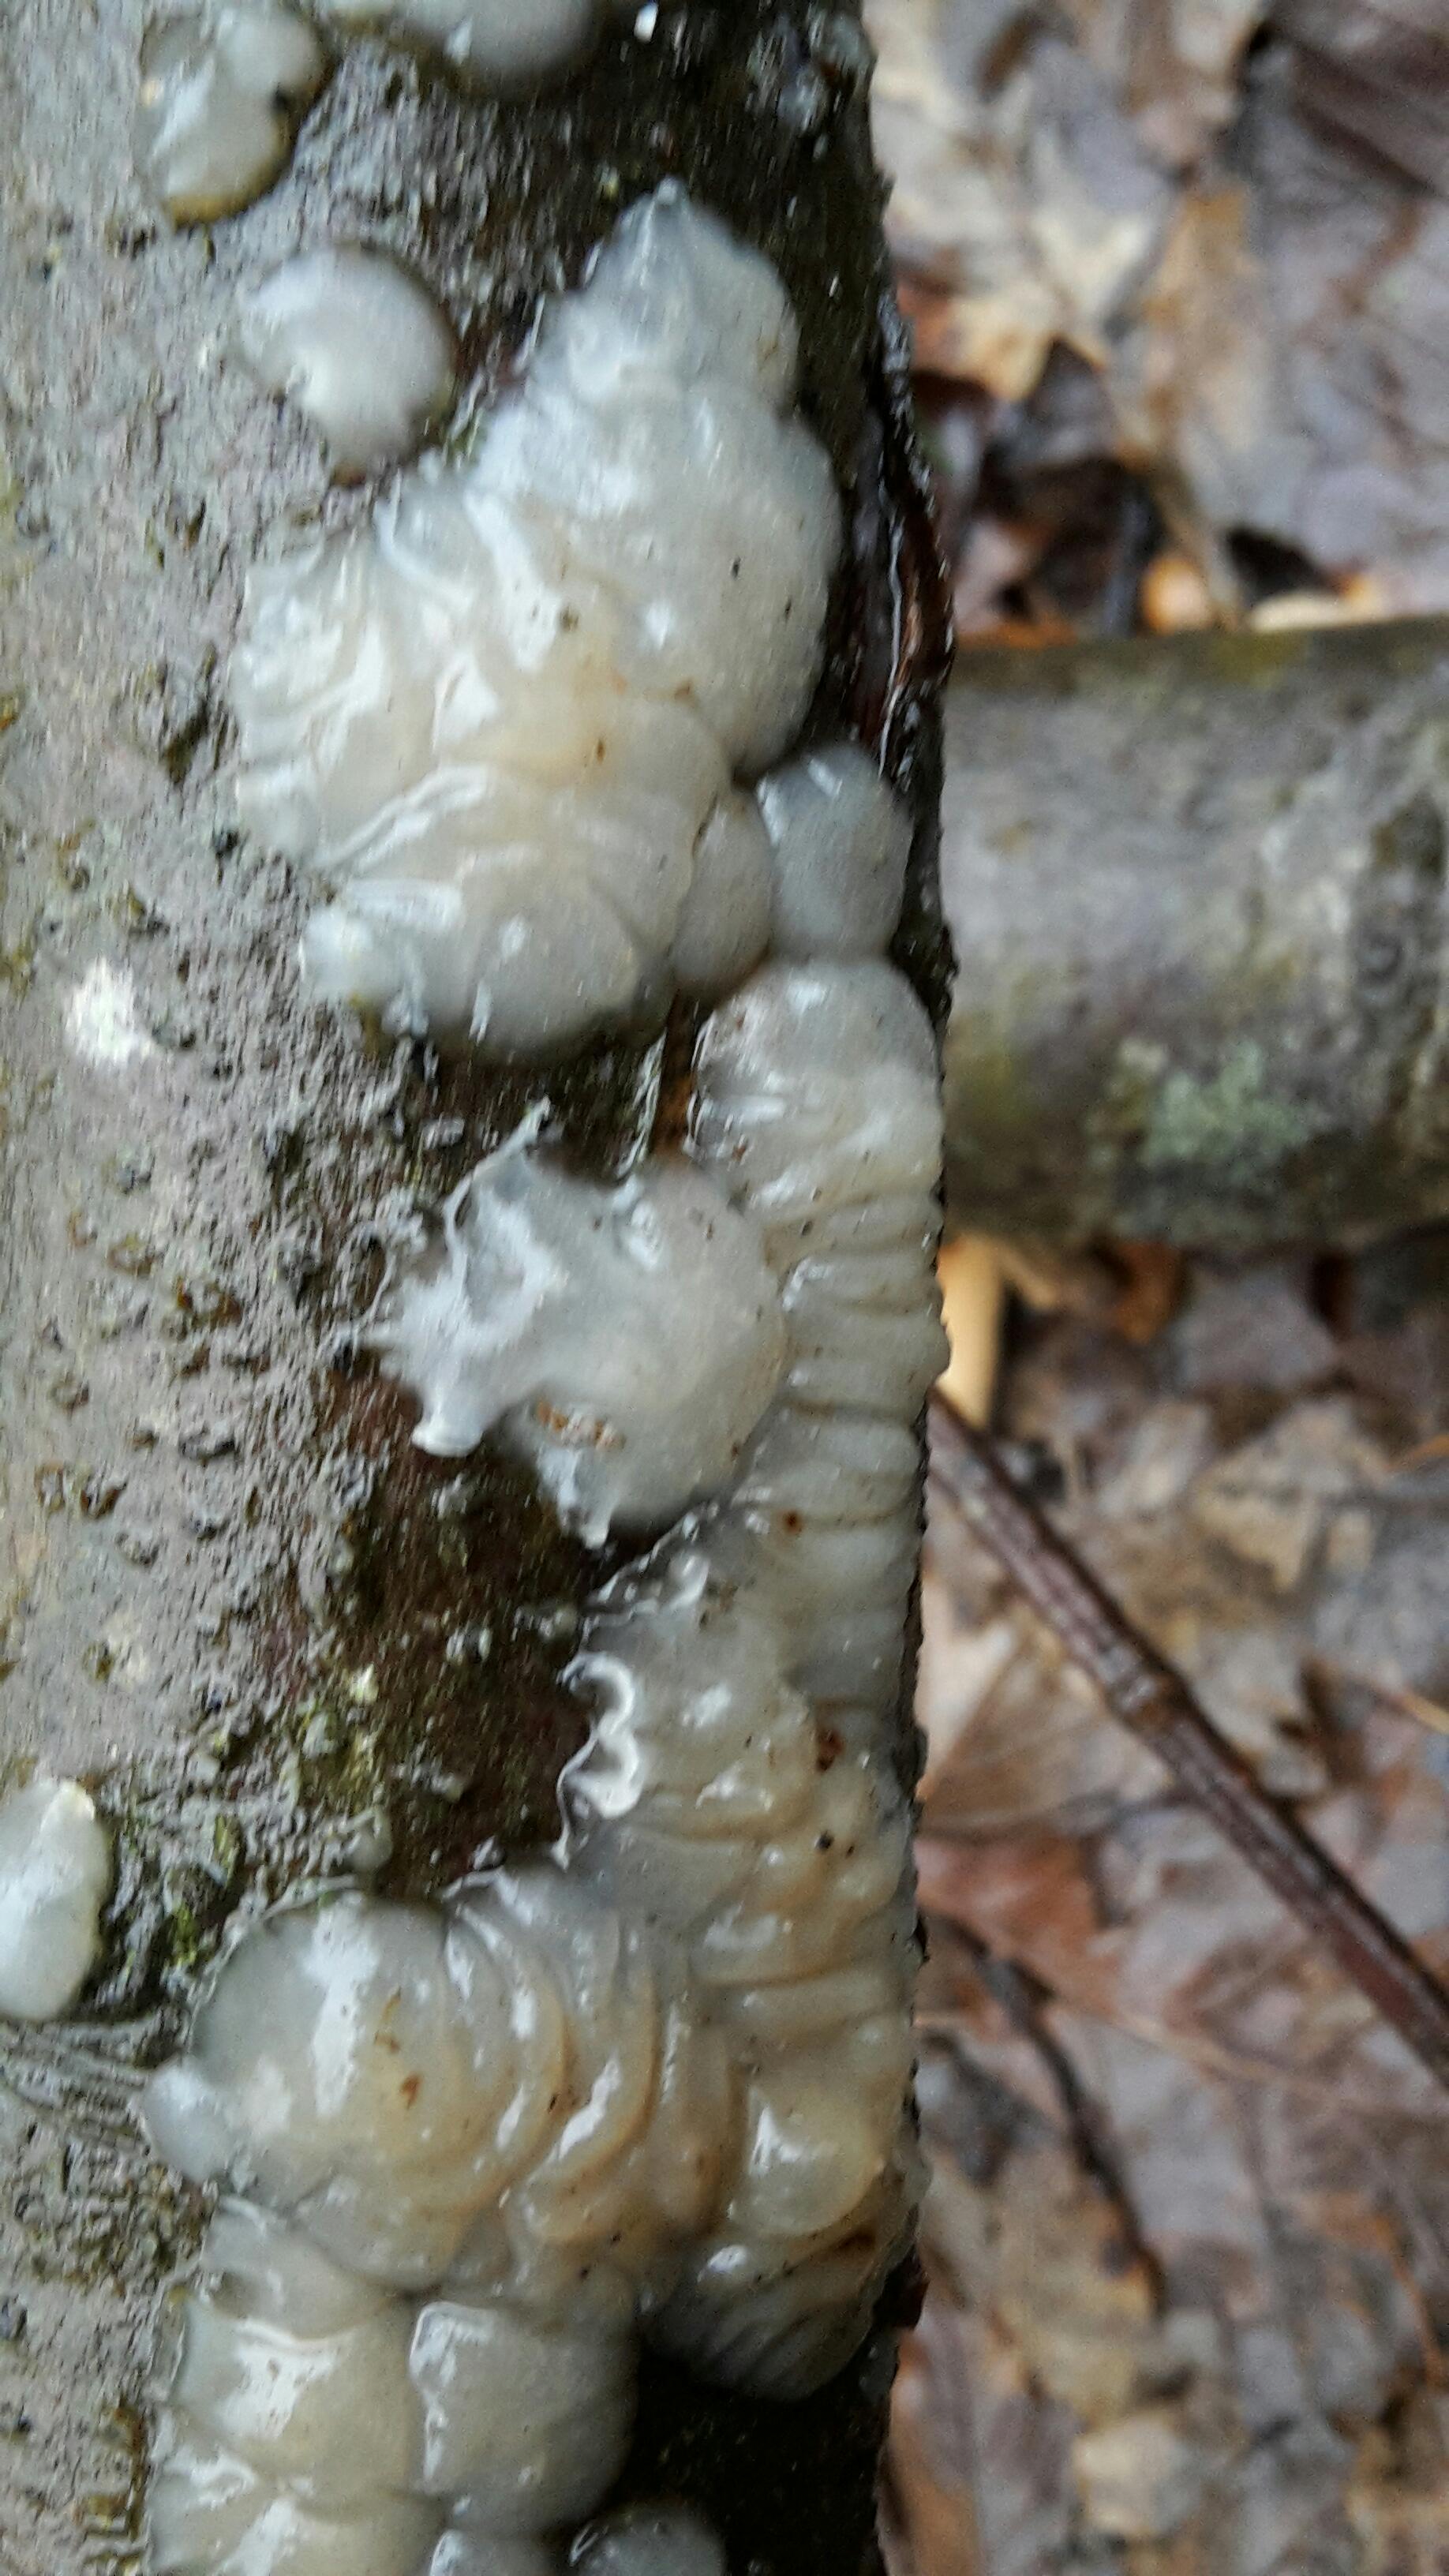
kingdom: Fungi
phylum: Basidiomycota
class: Agaricomycetes
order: Auriculariales
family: Auriculariaceae
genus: Exidia
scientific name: Exidia thuretiana
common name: hvidlig bævretop
